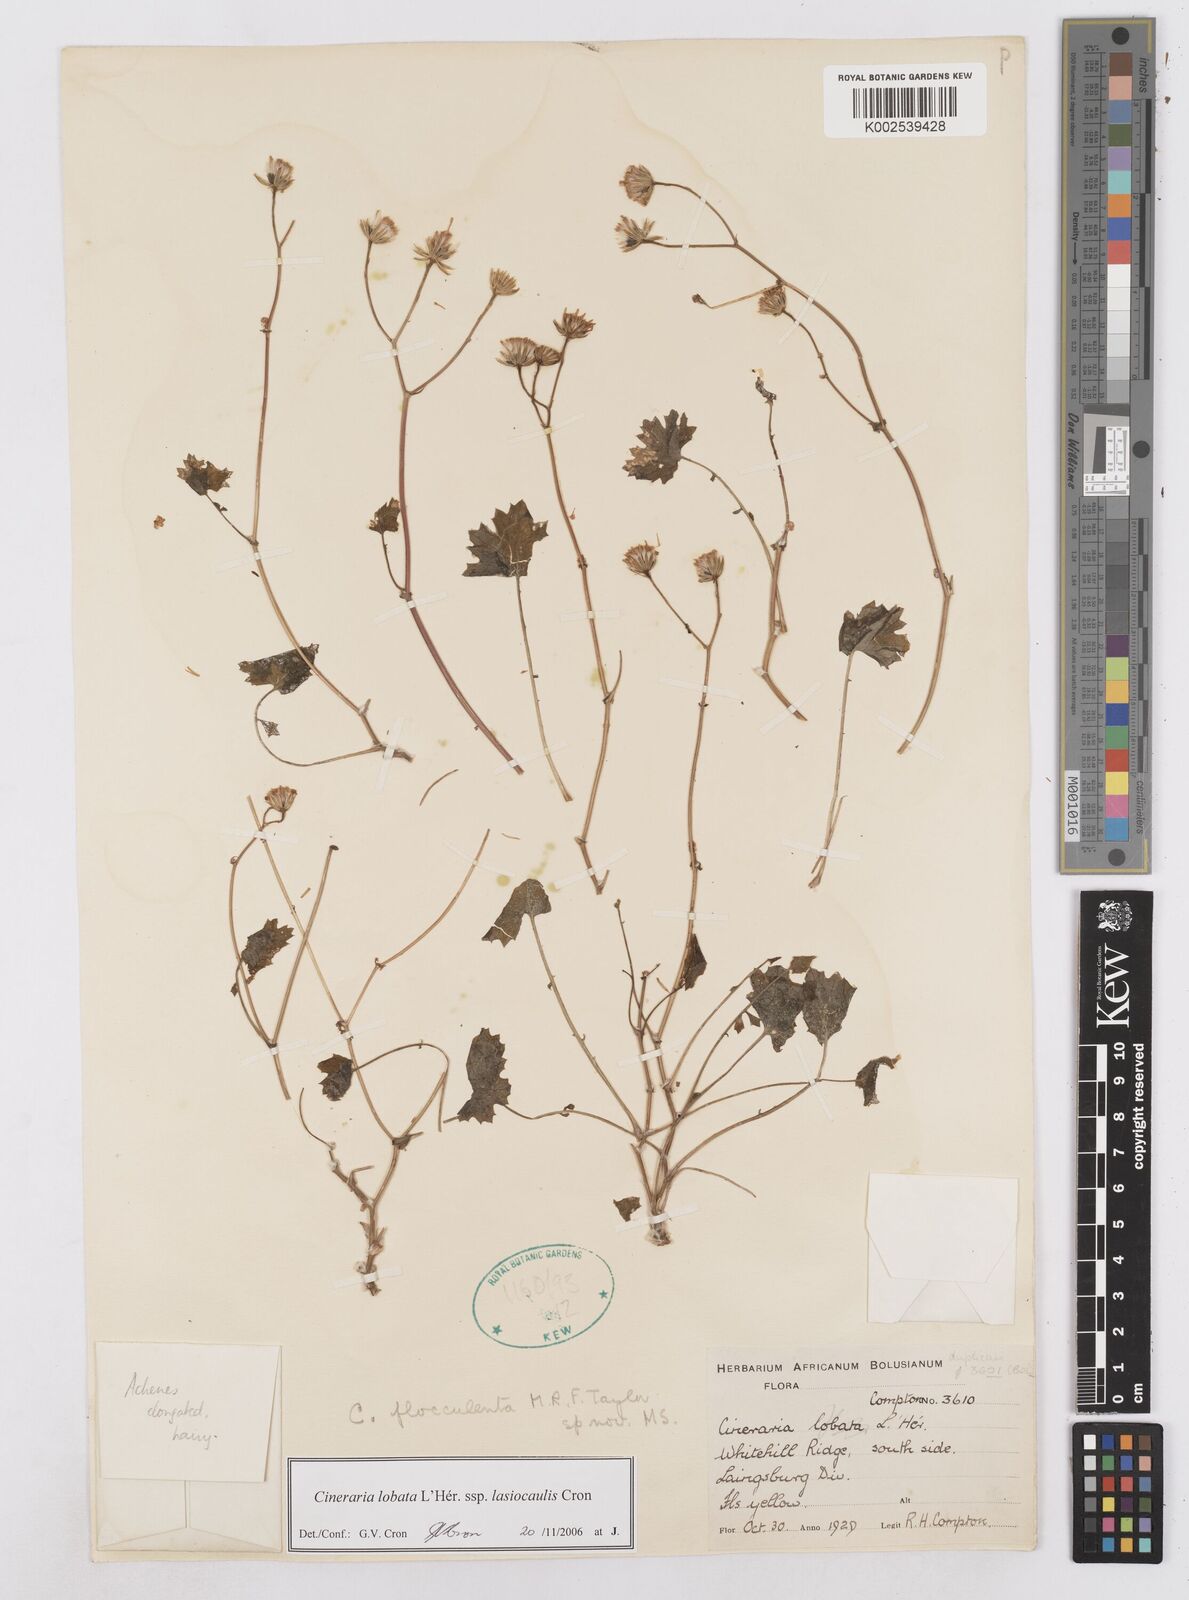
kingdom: Plantae
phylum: Tracheophyta
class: Magnoliopsida
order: Asterales
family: Asteraceae
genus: Cineraria
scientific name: Cineraria lobata
